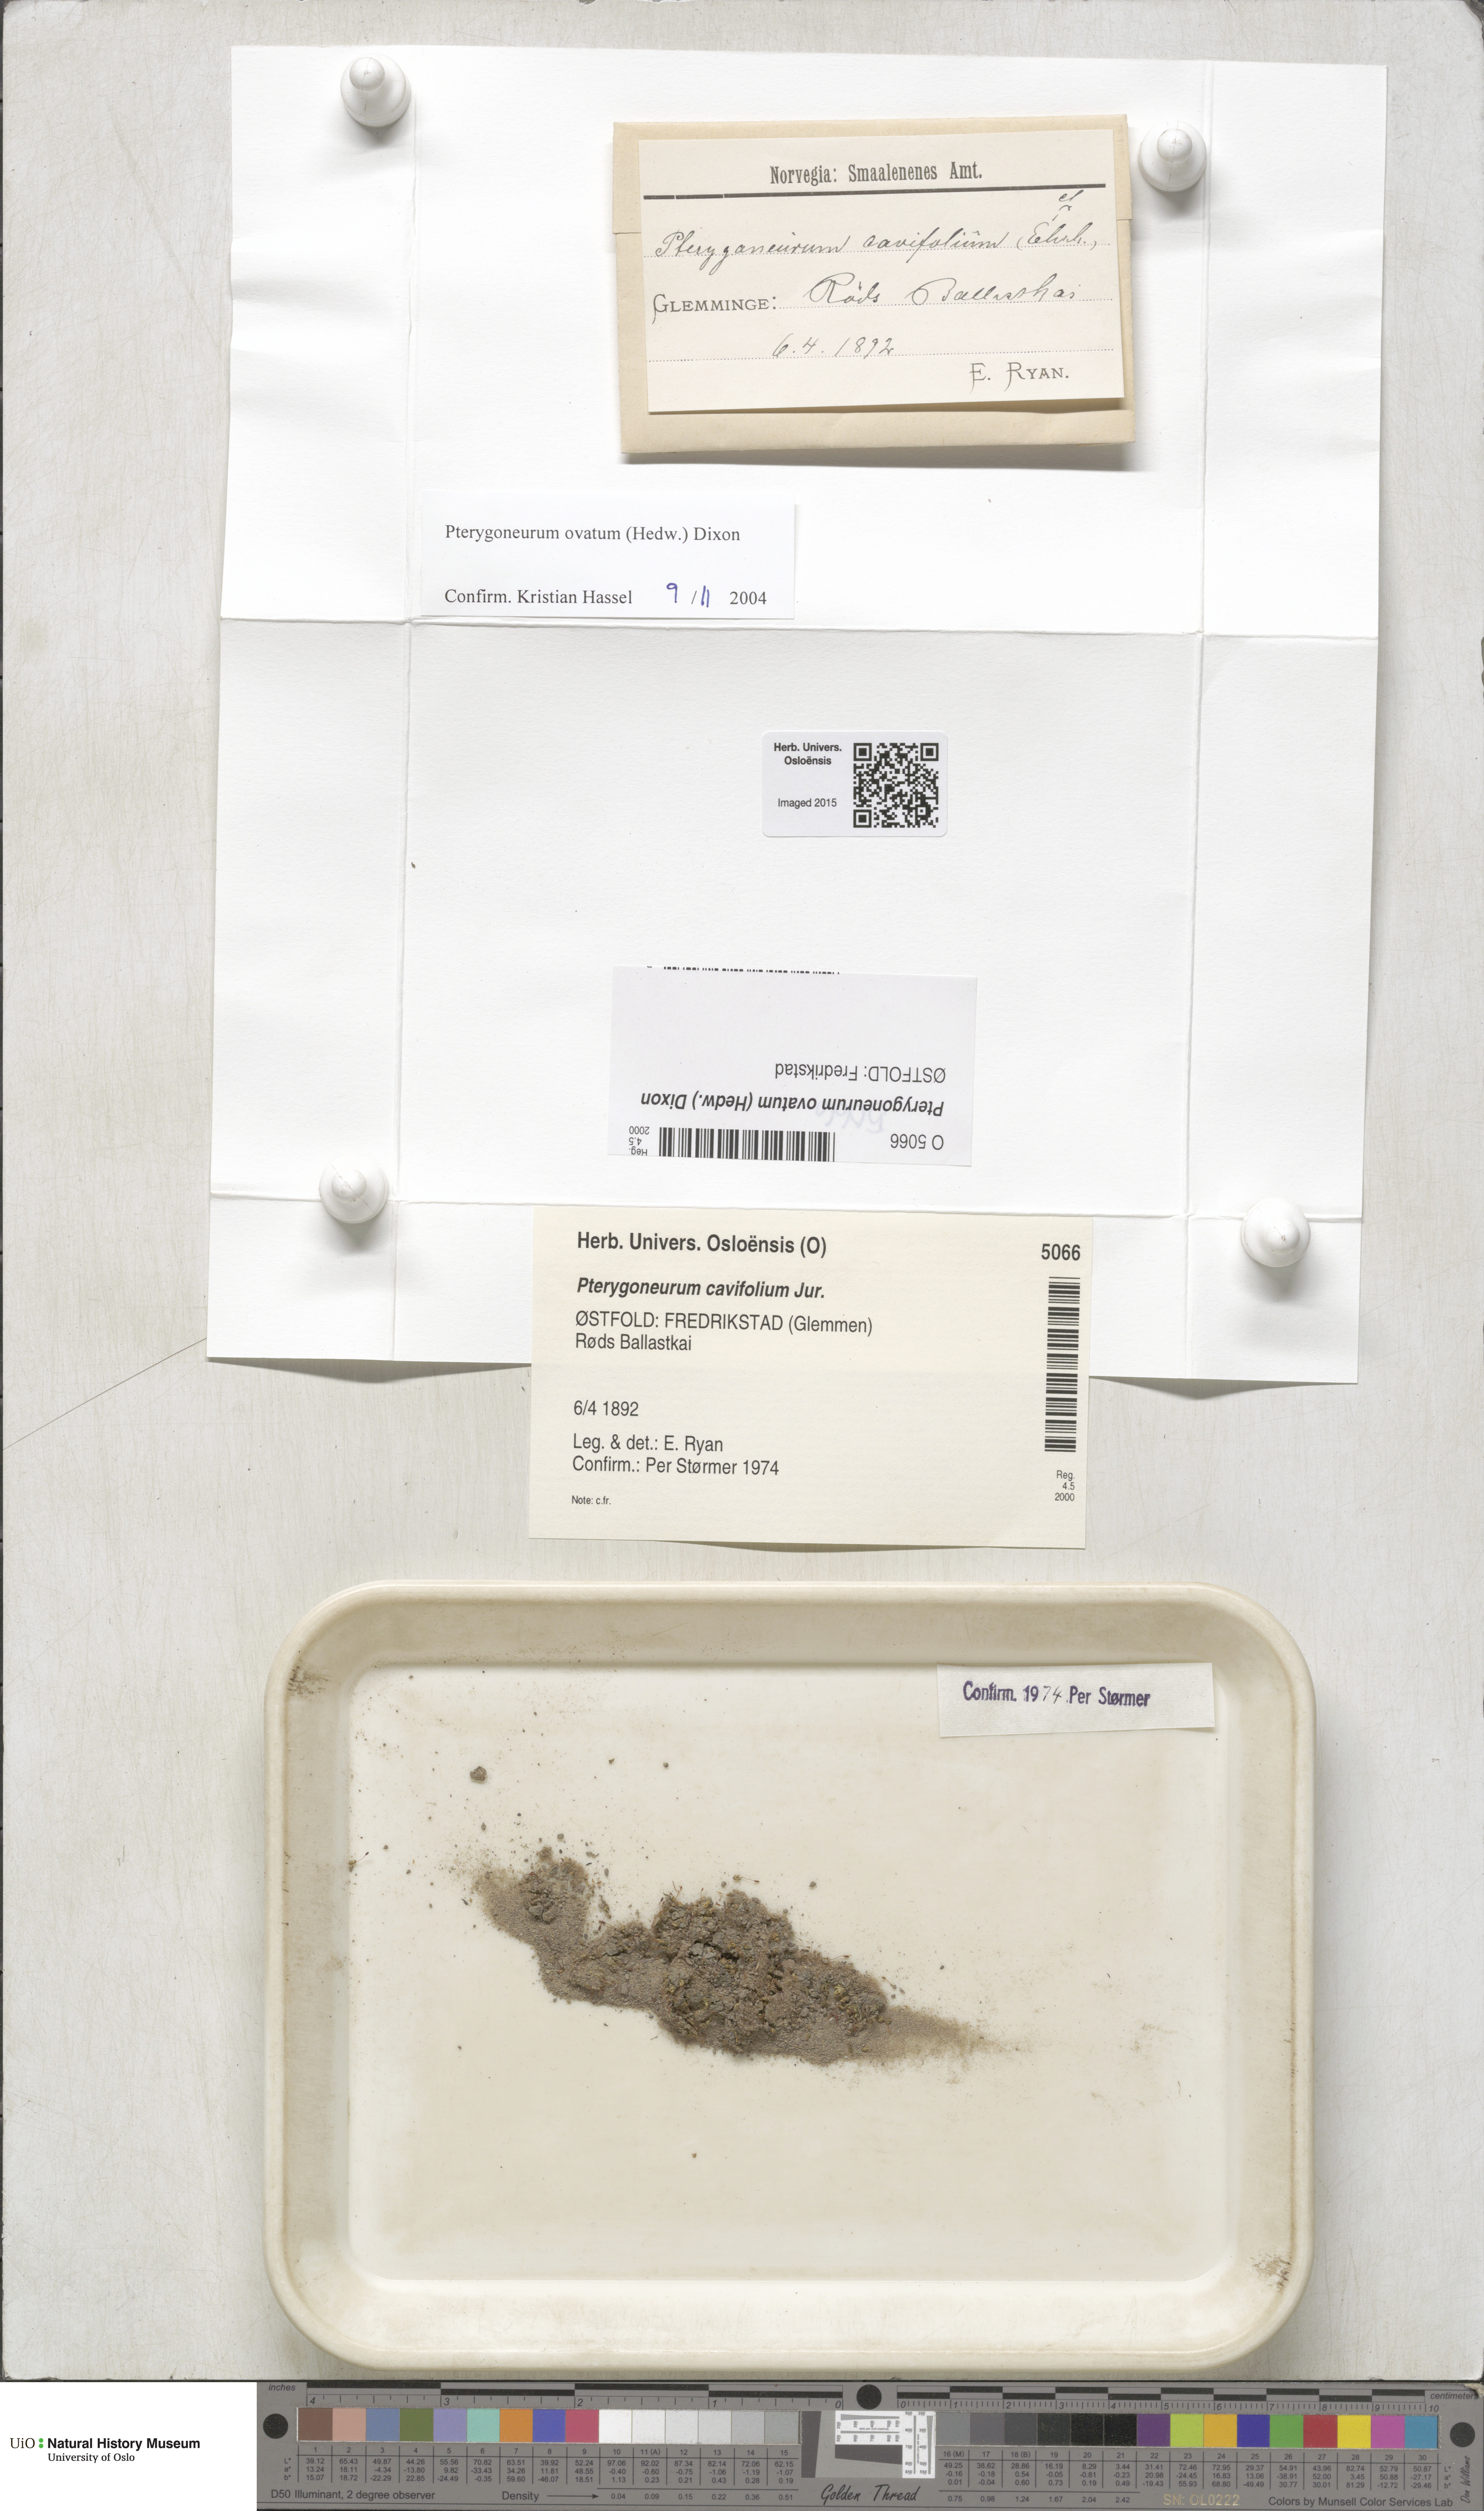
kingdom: Plantae
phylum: Bryophyta
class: Bryopsida
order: Pottiales
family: Pottiaceae
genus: Pterygoneurum
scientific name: Pterygoneurum ovatum
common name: Ovate pterygoneurum
